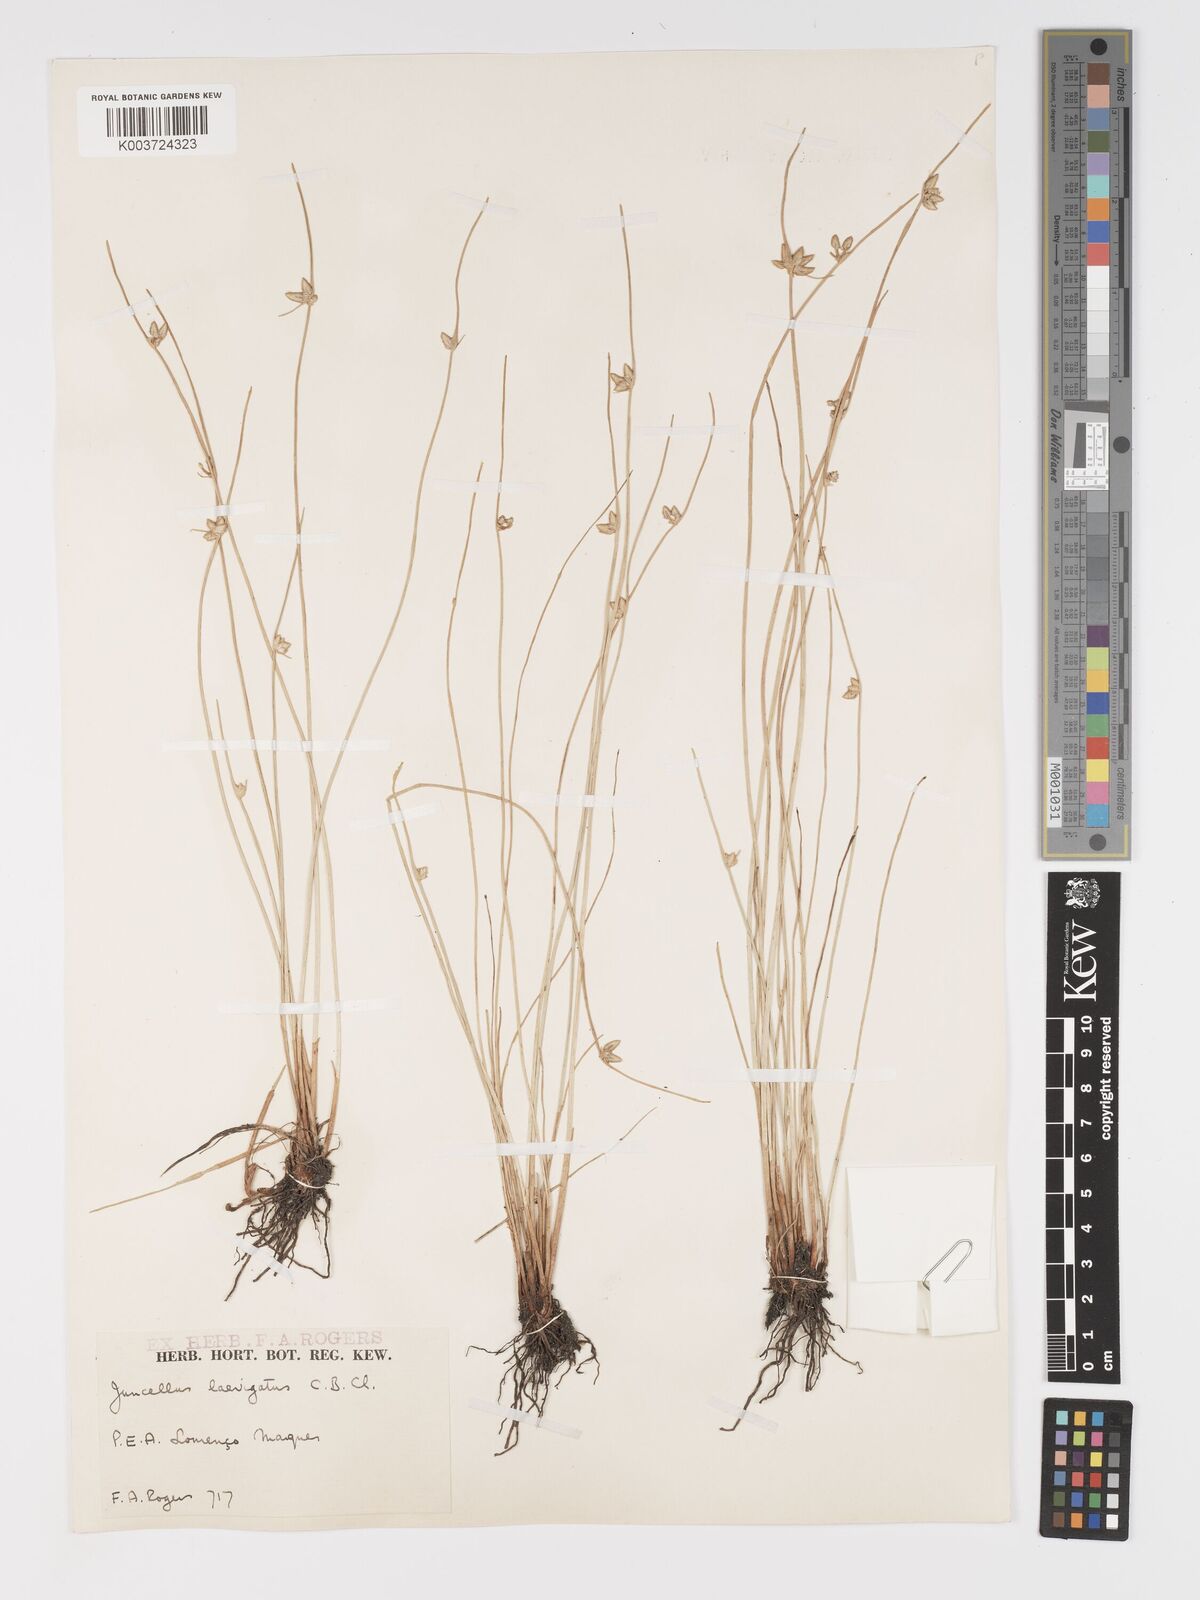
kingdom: Plantae
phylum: Tracheophyta
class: Liliopsida
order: Poales
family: Cyperaceae
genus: Cyperus
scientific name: Cyperus laevigatus
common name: Smooth flat sedge
